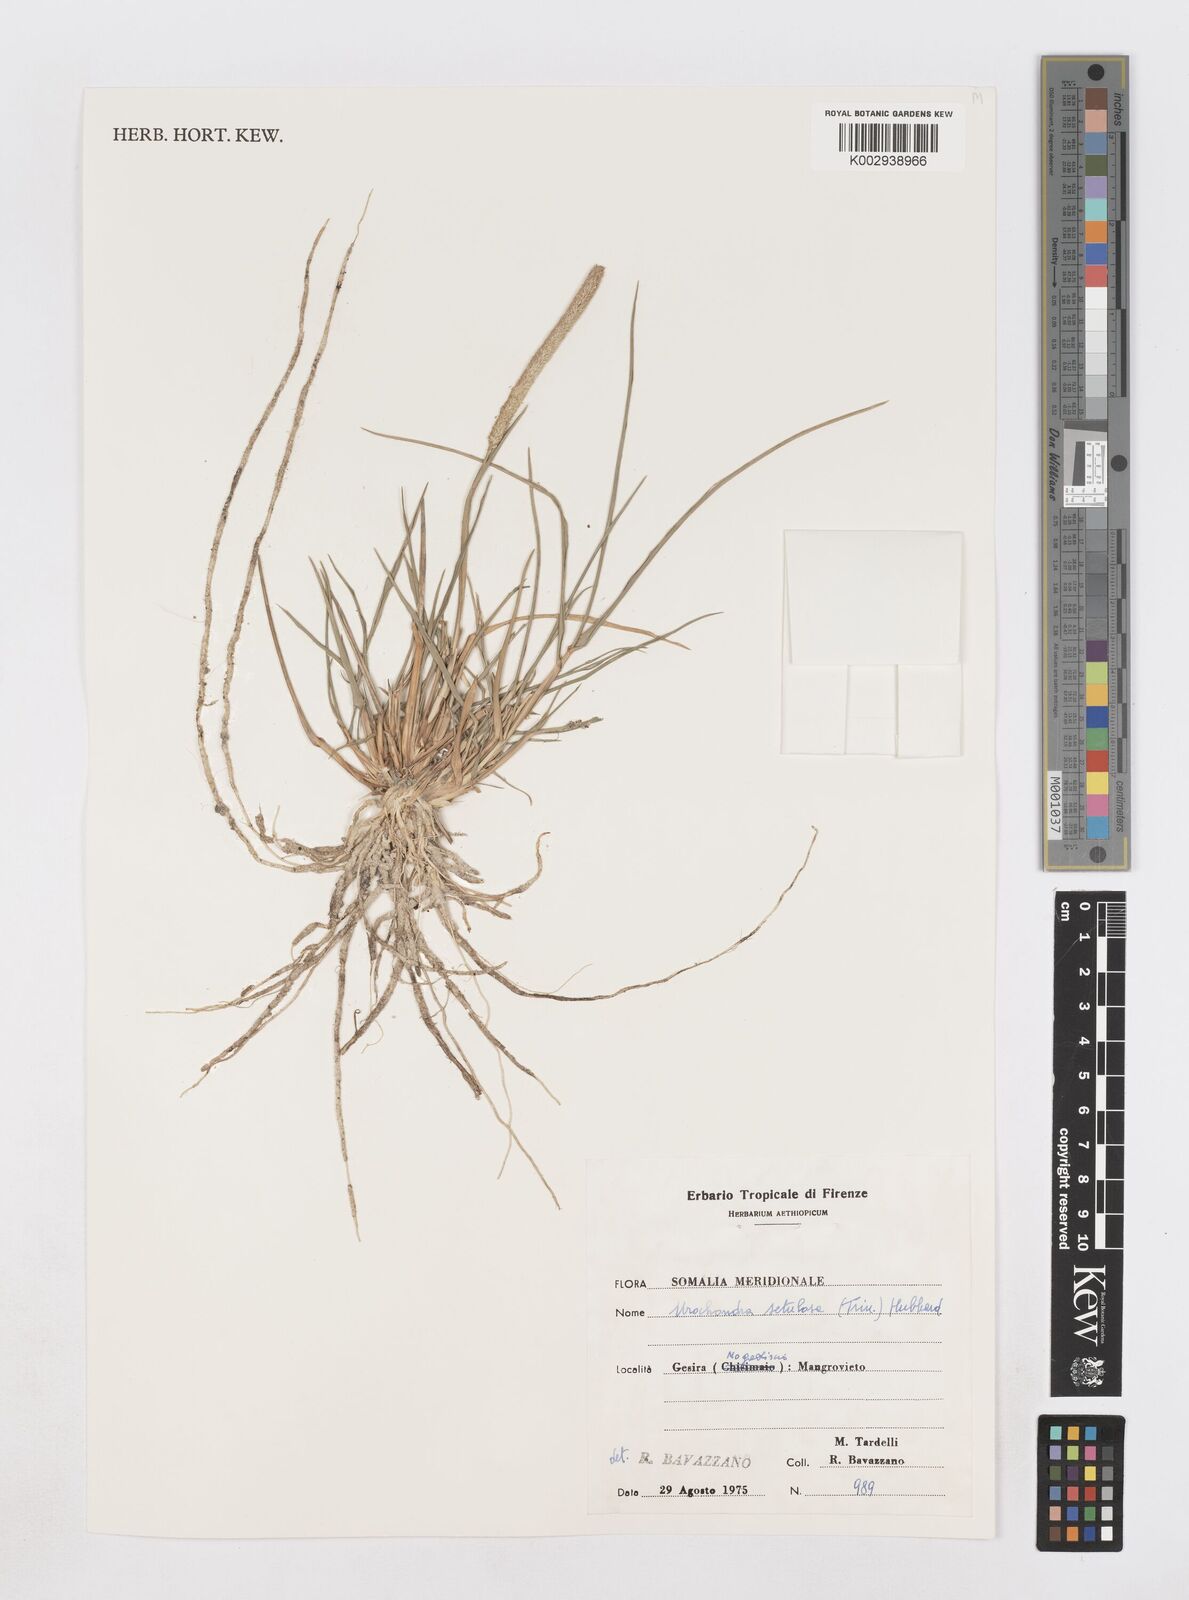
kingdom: Plantae
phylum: Tracheophyta
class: Liliopsida
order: Poales
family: Poaceae
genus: Urochondra
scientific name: Urochondra setulosa
